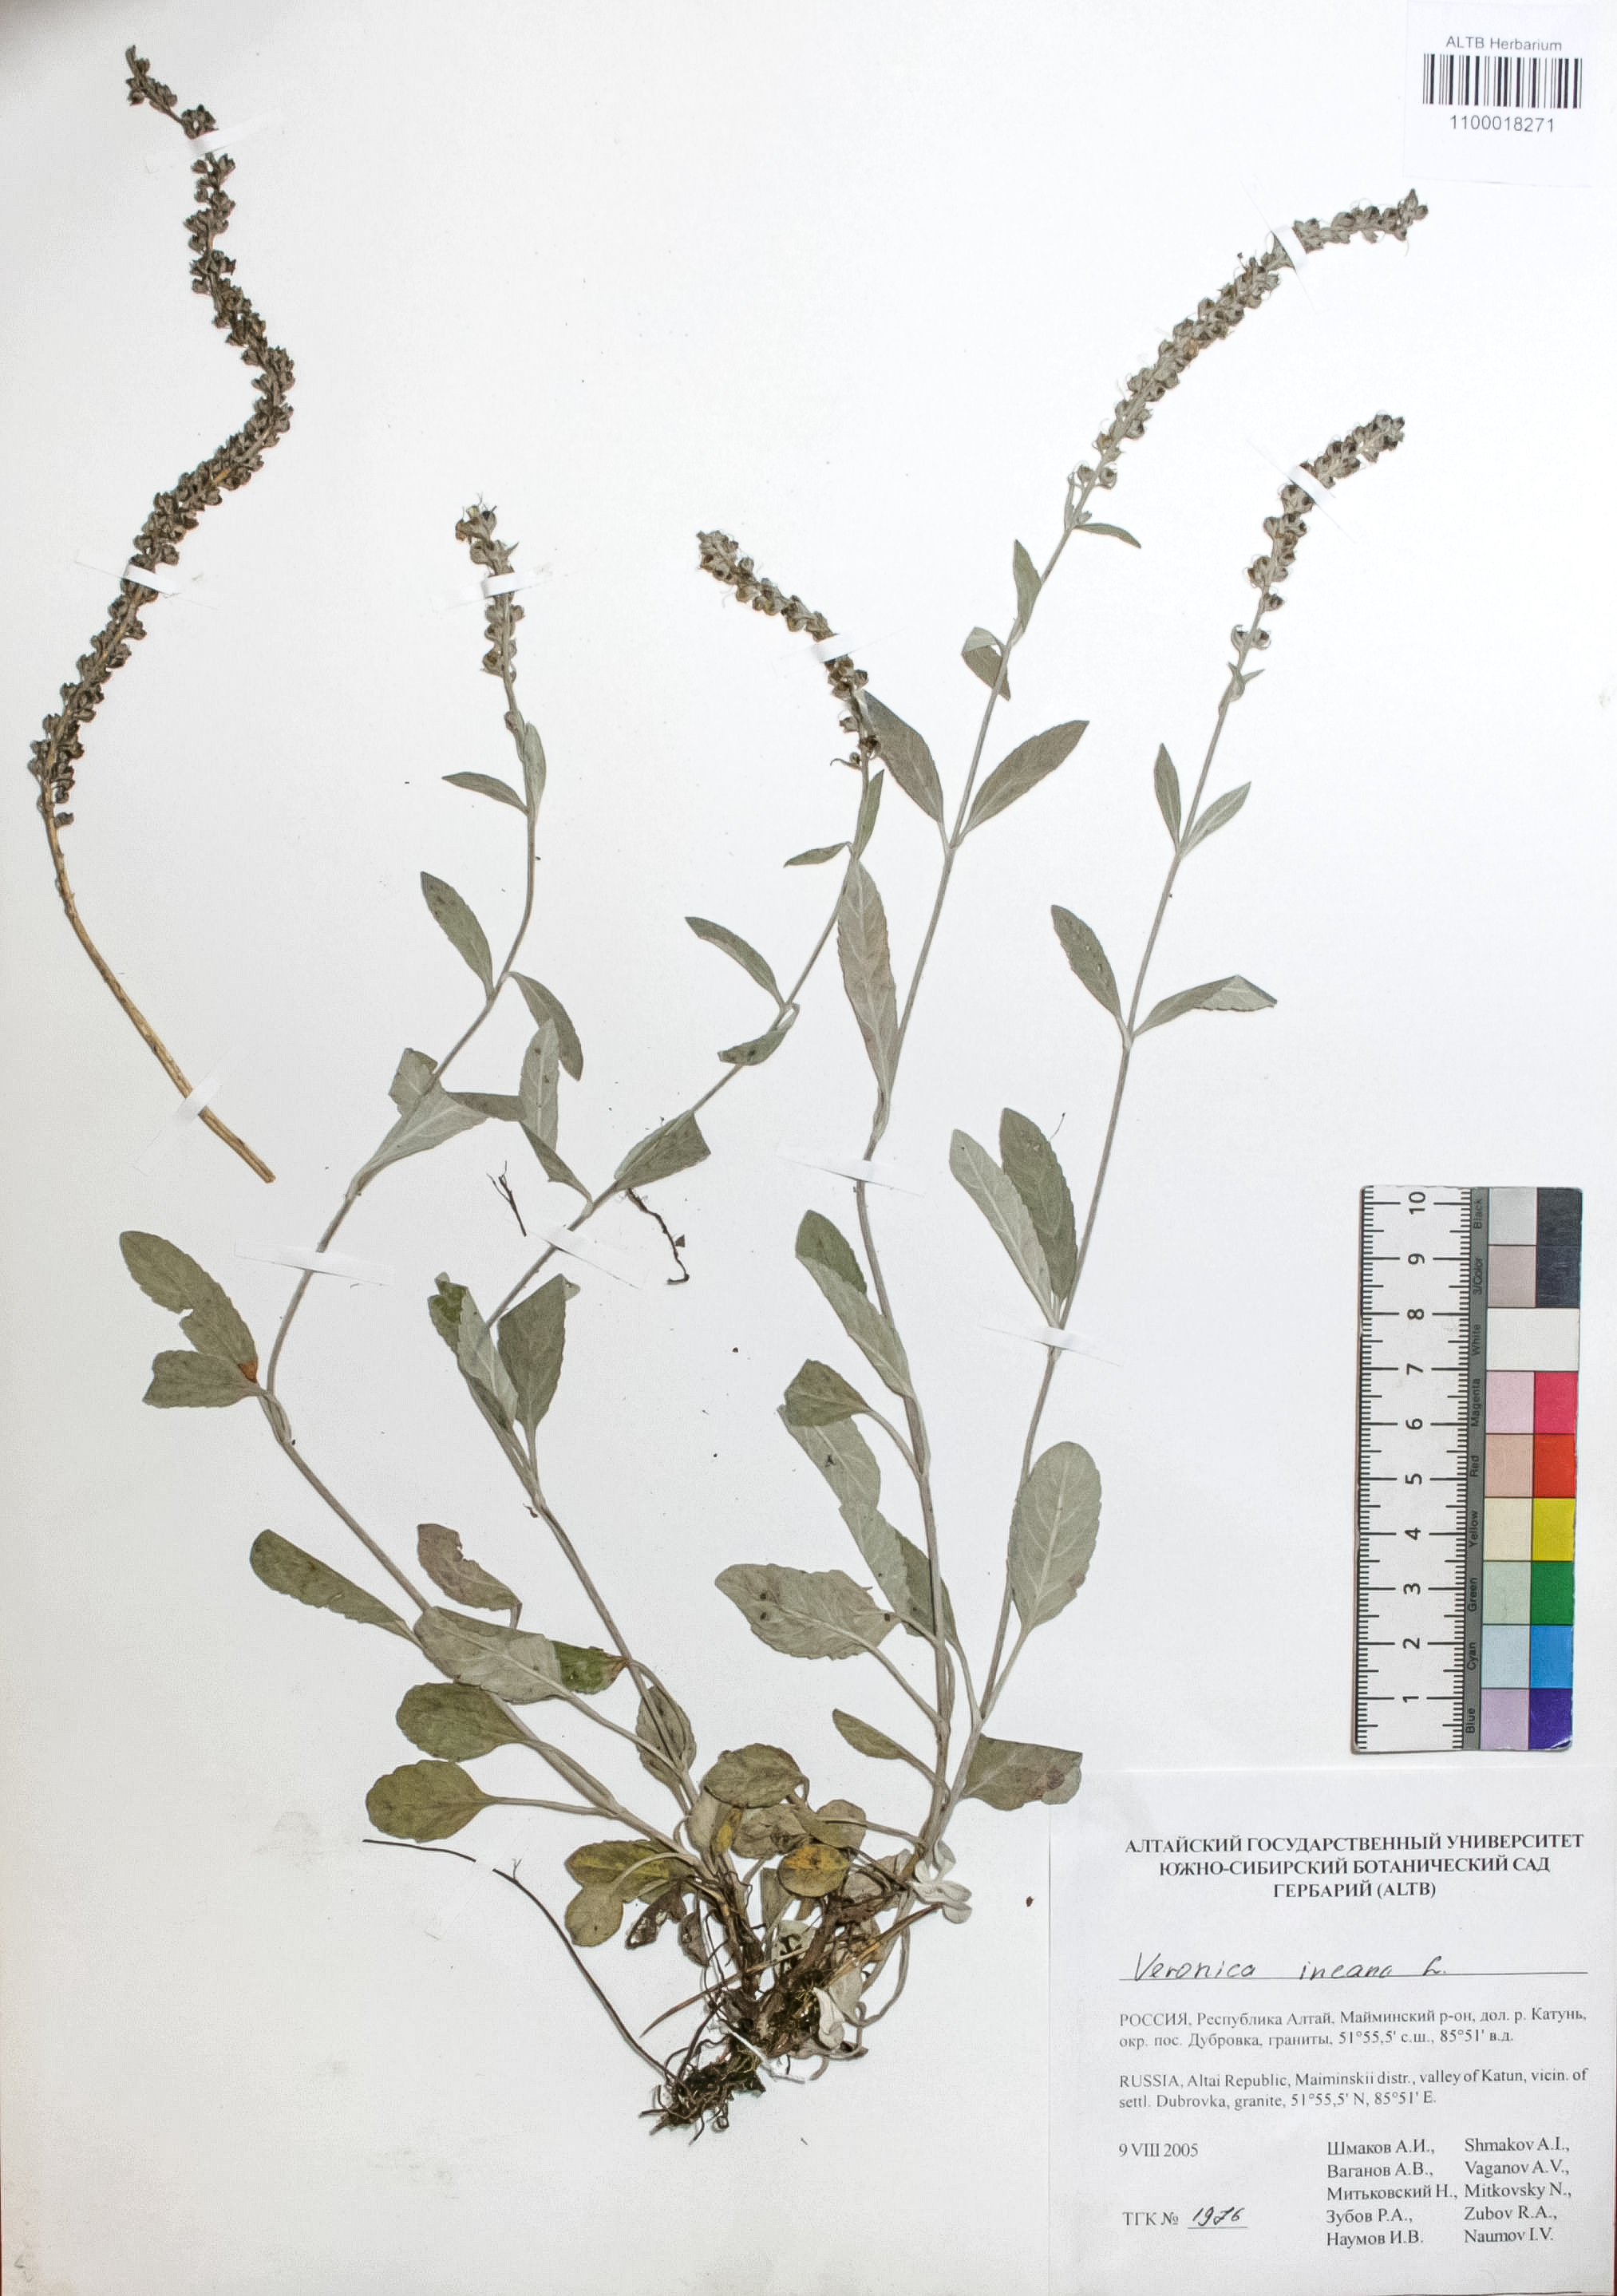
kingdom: Plantae
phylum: Tracheophyta
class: Magnoliopsida
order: Lamiales
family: Plantaginaceae
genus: Veronica
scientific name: Veronica incana
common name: Silver speedwell
